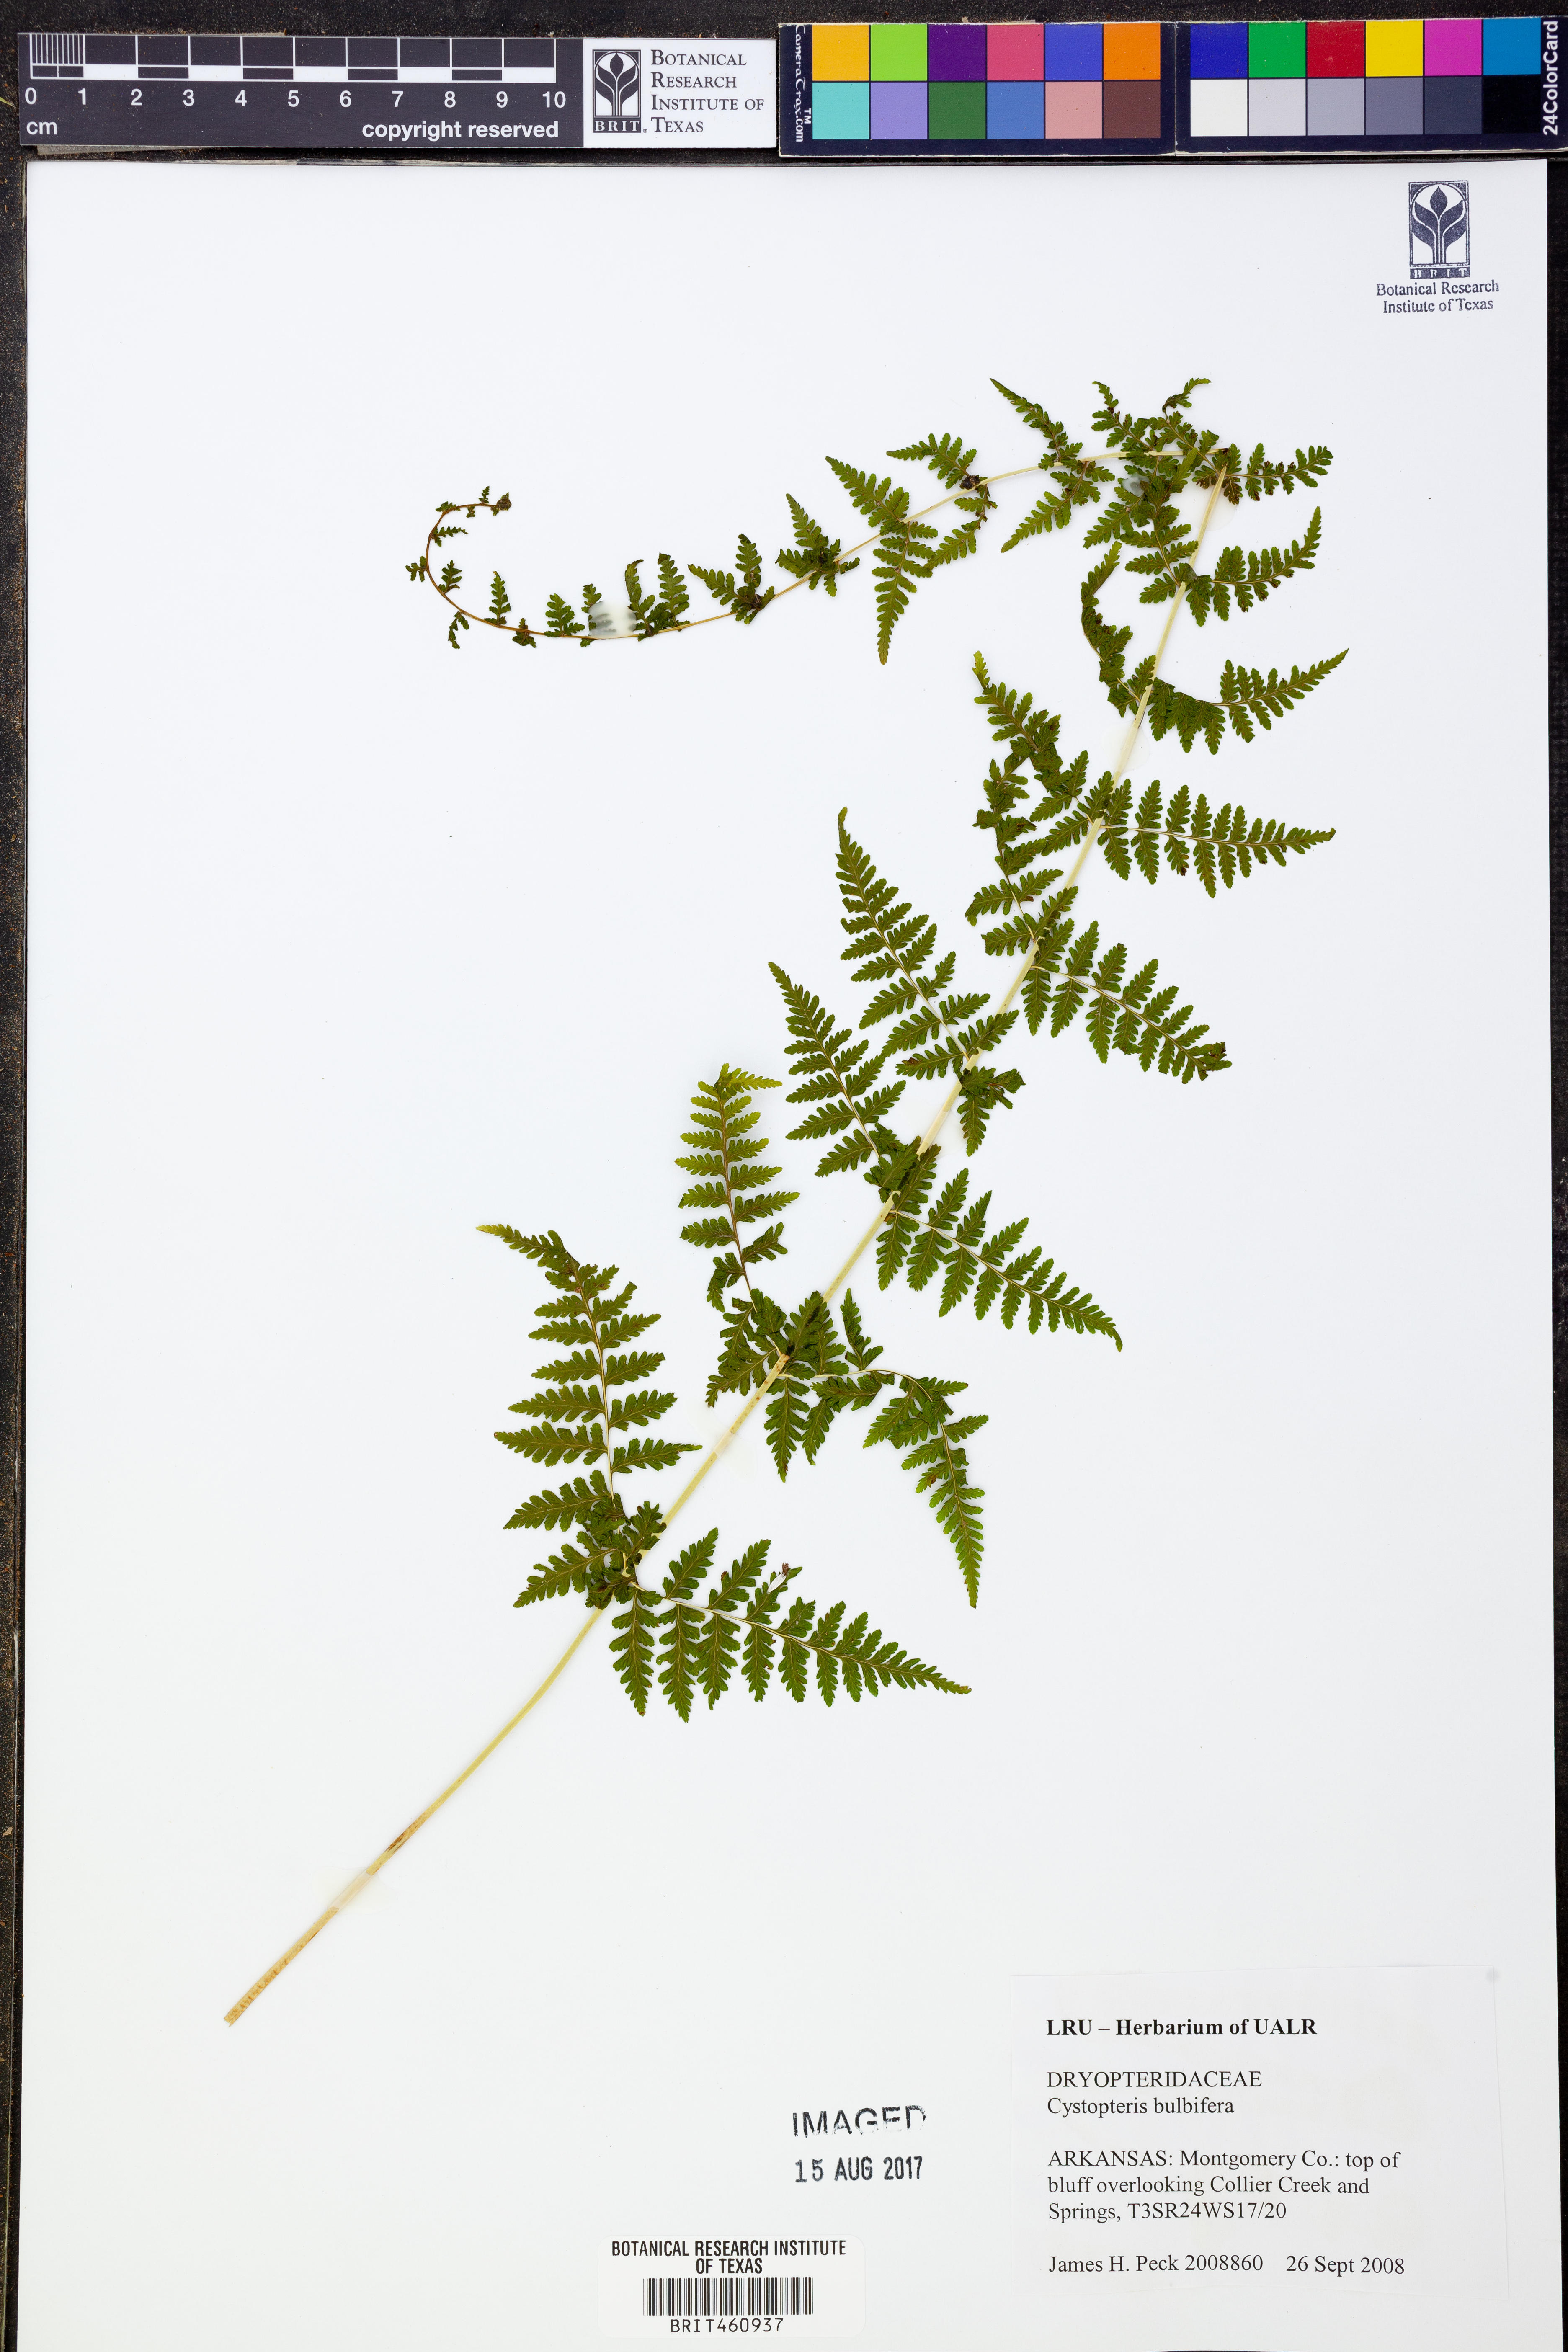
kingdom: Plantae
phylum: Tracheophyta
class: Polypodiopsida
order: Polypodiales
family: Cystopteridaceae
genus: Cystopteris
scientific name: Cystopteris bulbifera
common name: Bulblet bladder fern
